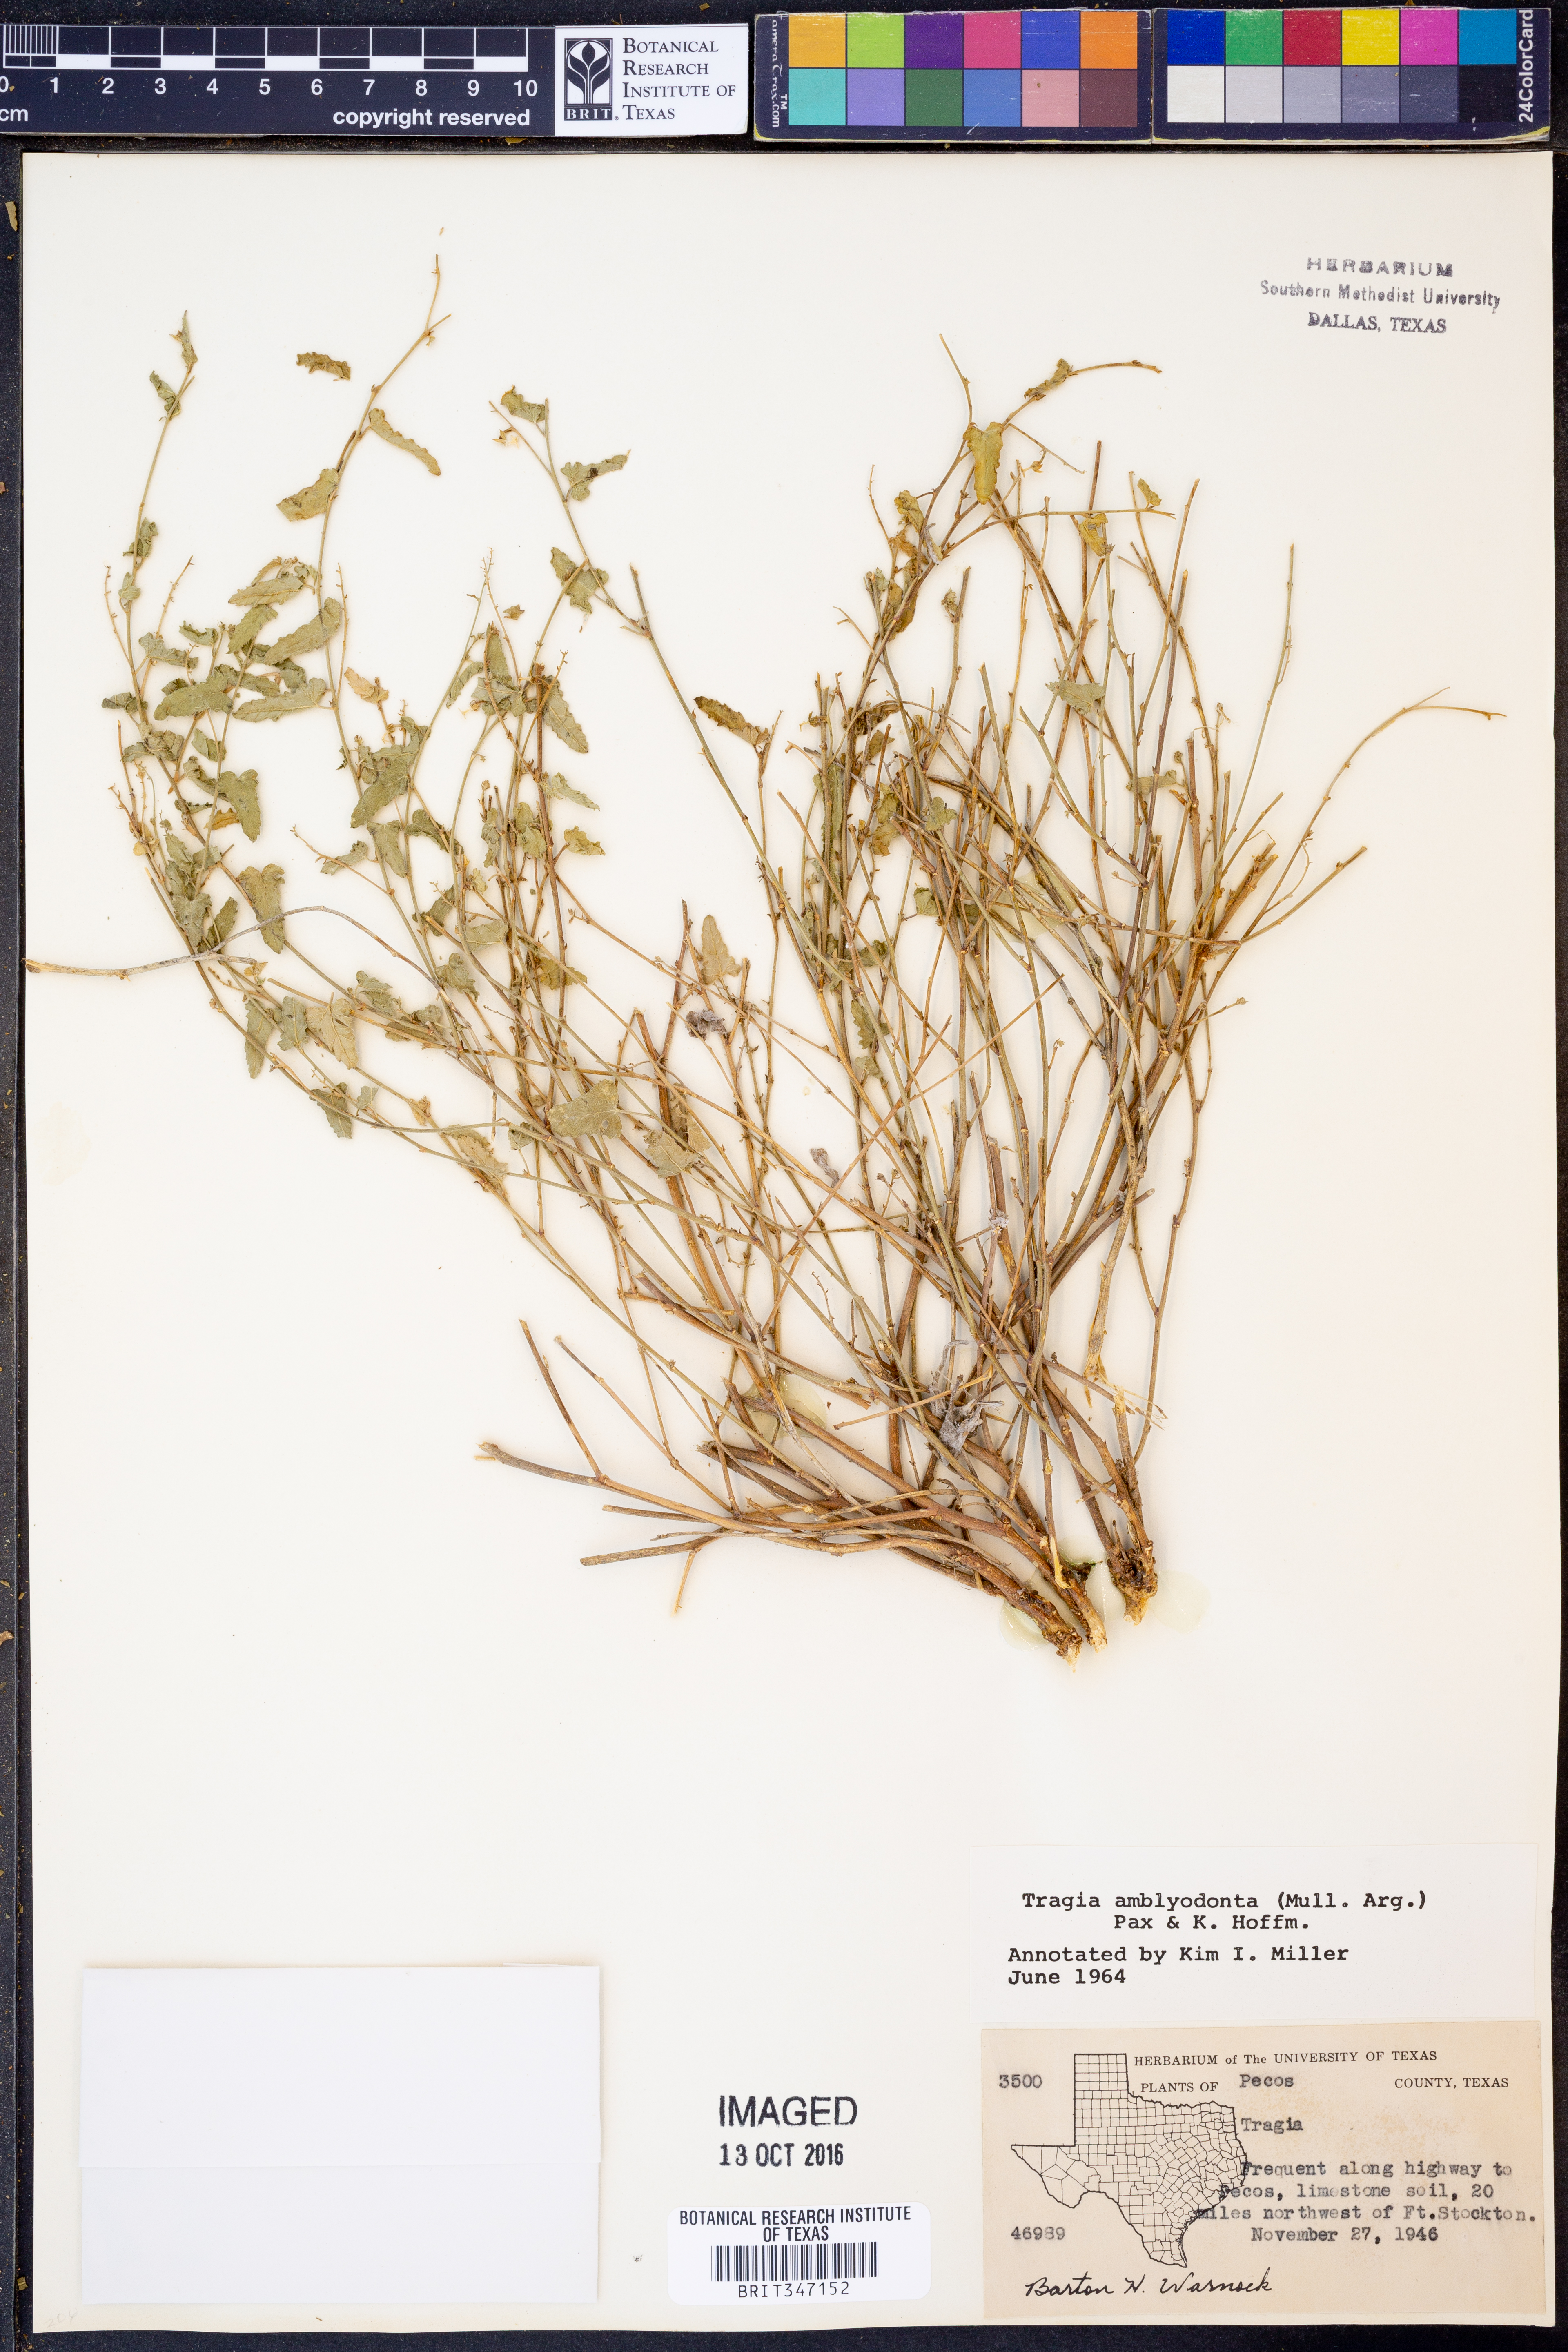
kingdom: Plantae
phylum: Tracheophyta
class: Magnoliopsida
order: Malpighiales
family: Euphorbiaceae
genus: Tragia
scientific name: Tragia amblyodonta
